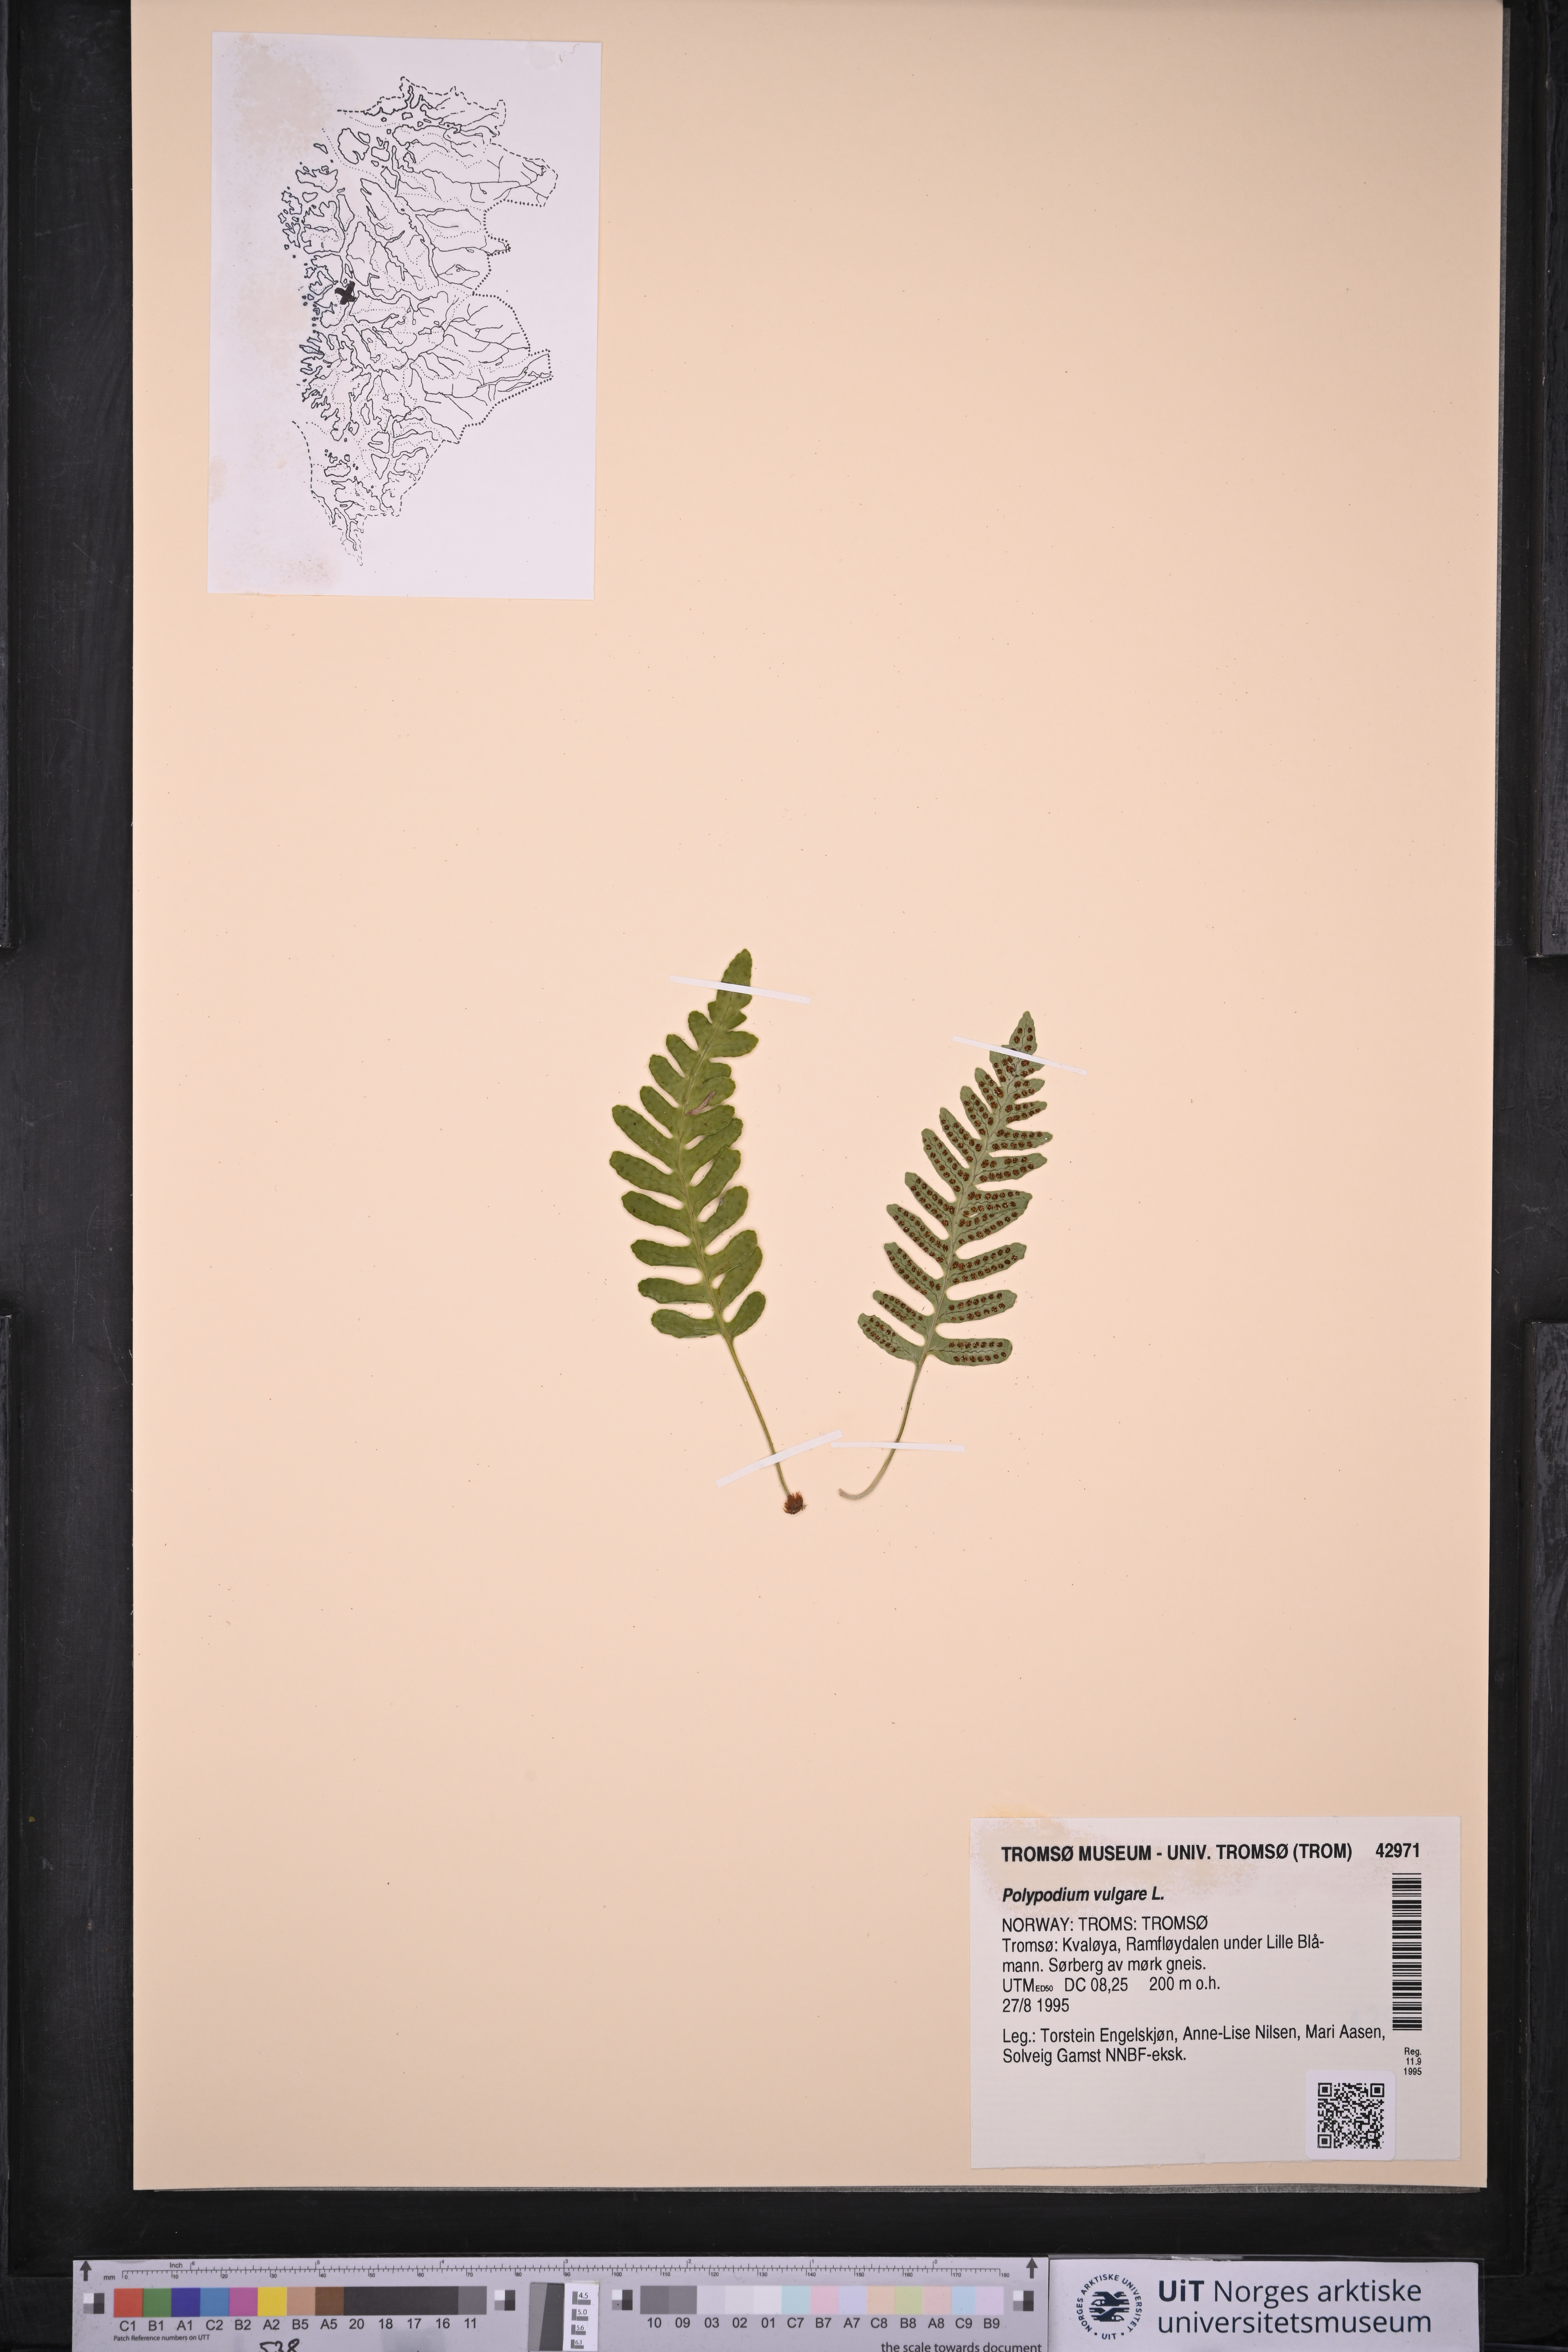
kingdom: Plantae
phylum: Tracheophyta
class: Polypodiopsida
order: Polypodiales
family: Polypodiaceae
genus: Polypodium
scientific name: Polypodium vulgare
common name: Common polypody
